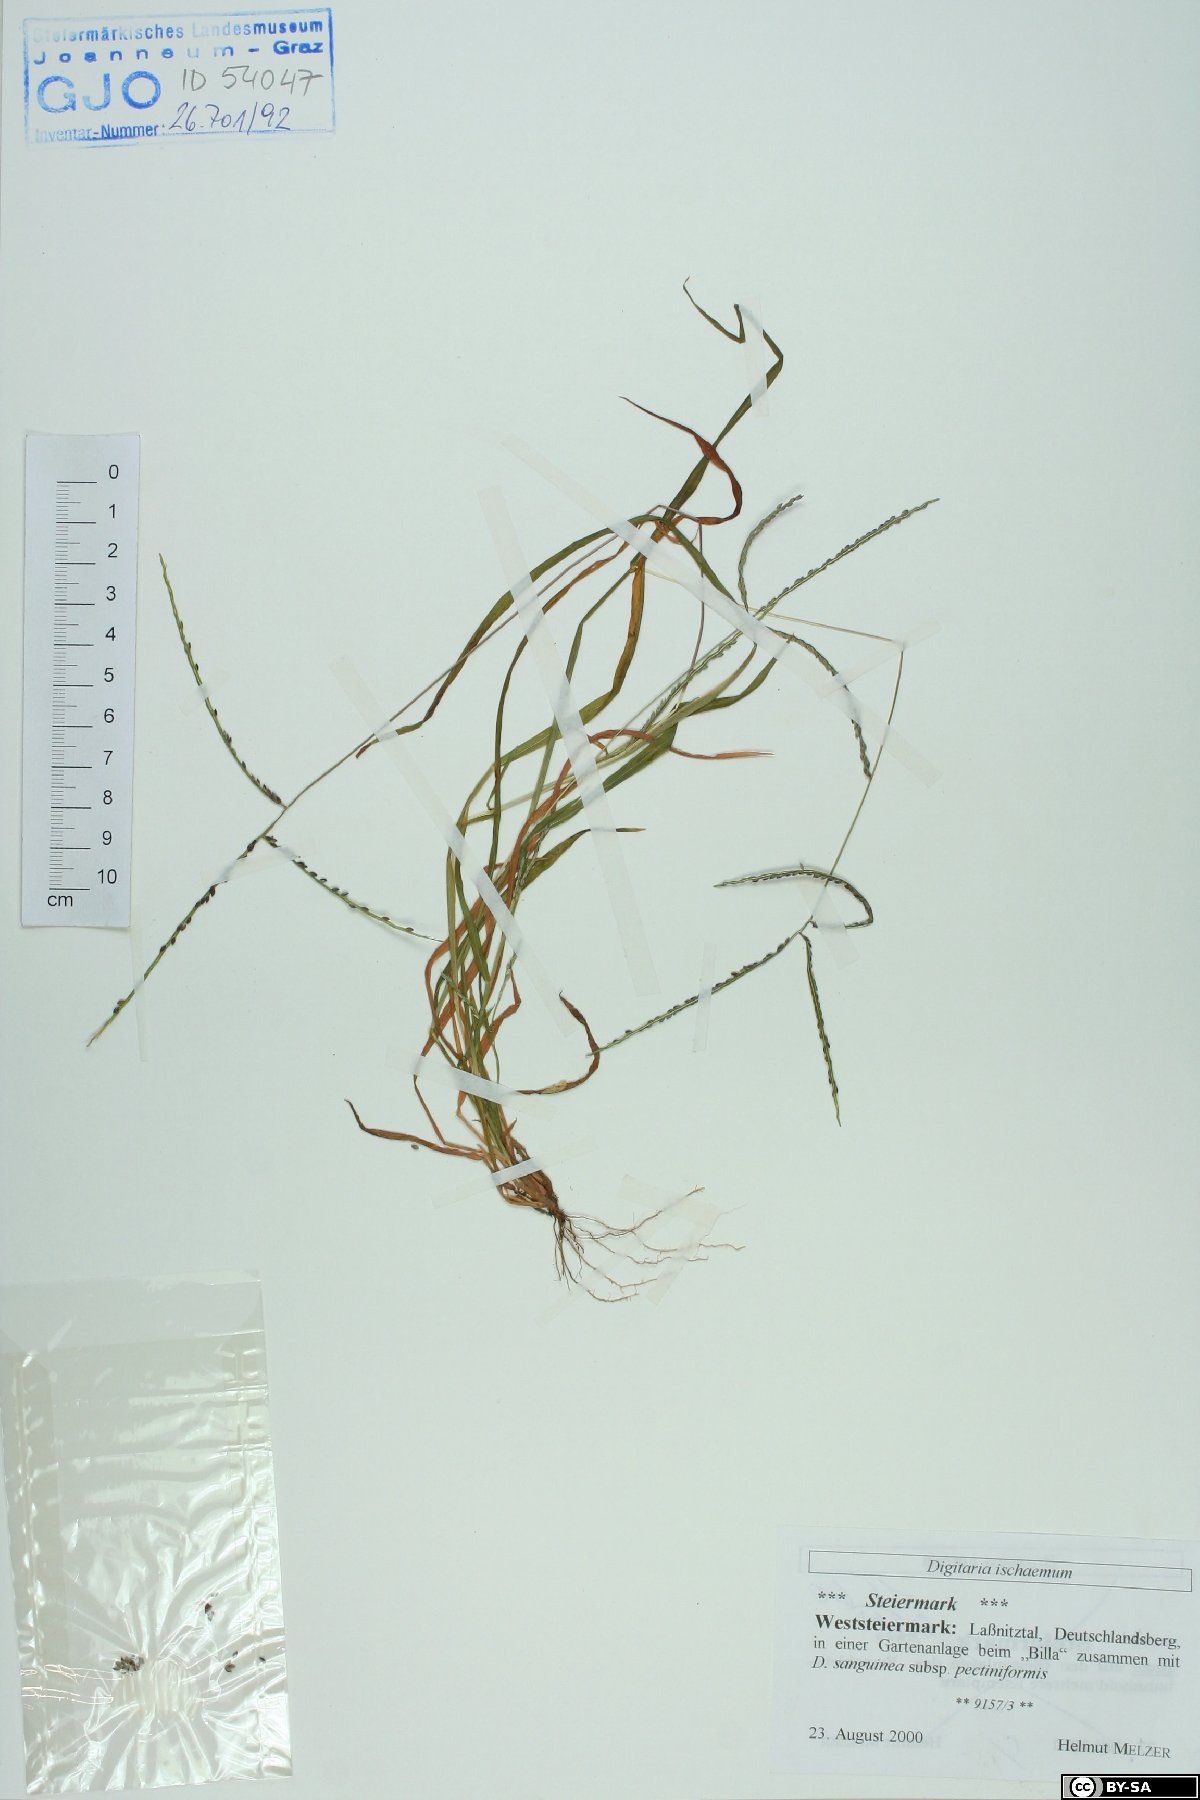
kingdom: Plantae
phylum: Tracheophyta
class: Liliopsida
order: Poales
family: Poaceae
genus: Digitaria
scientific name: Digitaria ischaemum
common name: Smooth crabgrass
